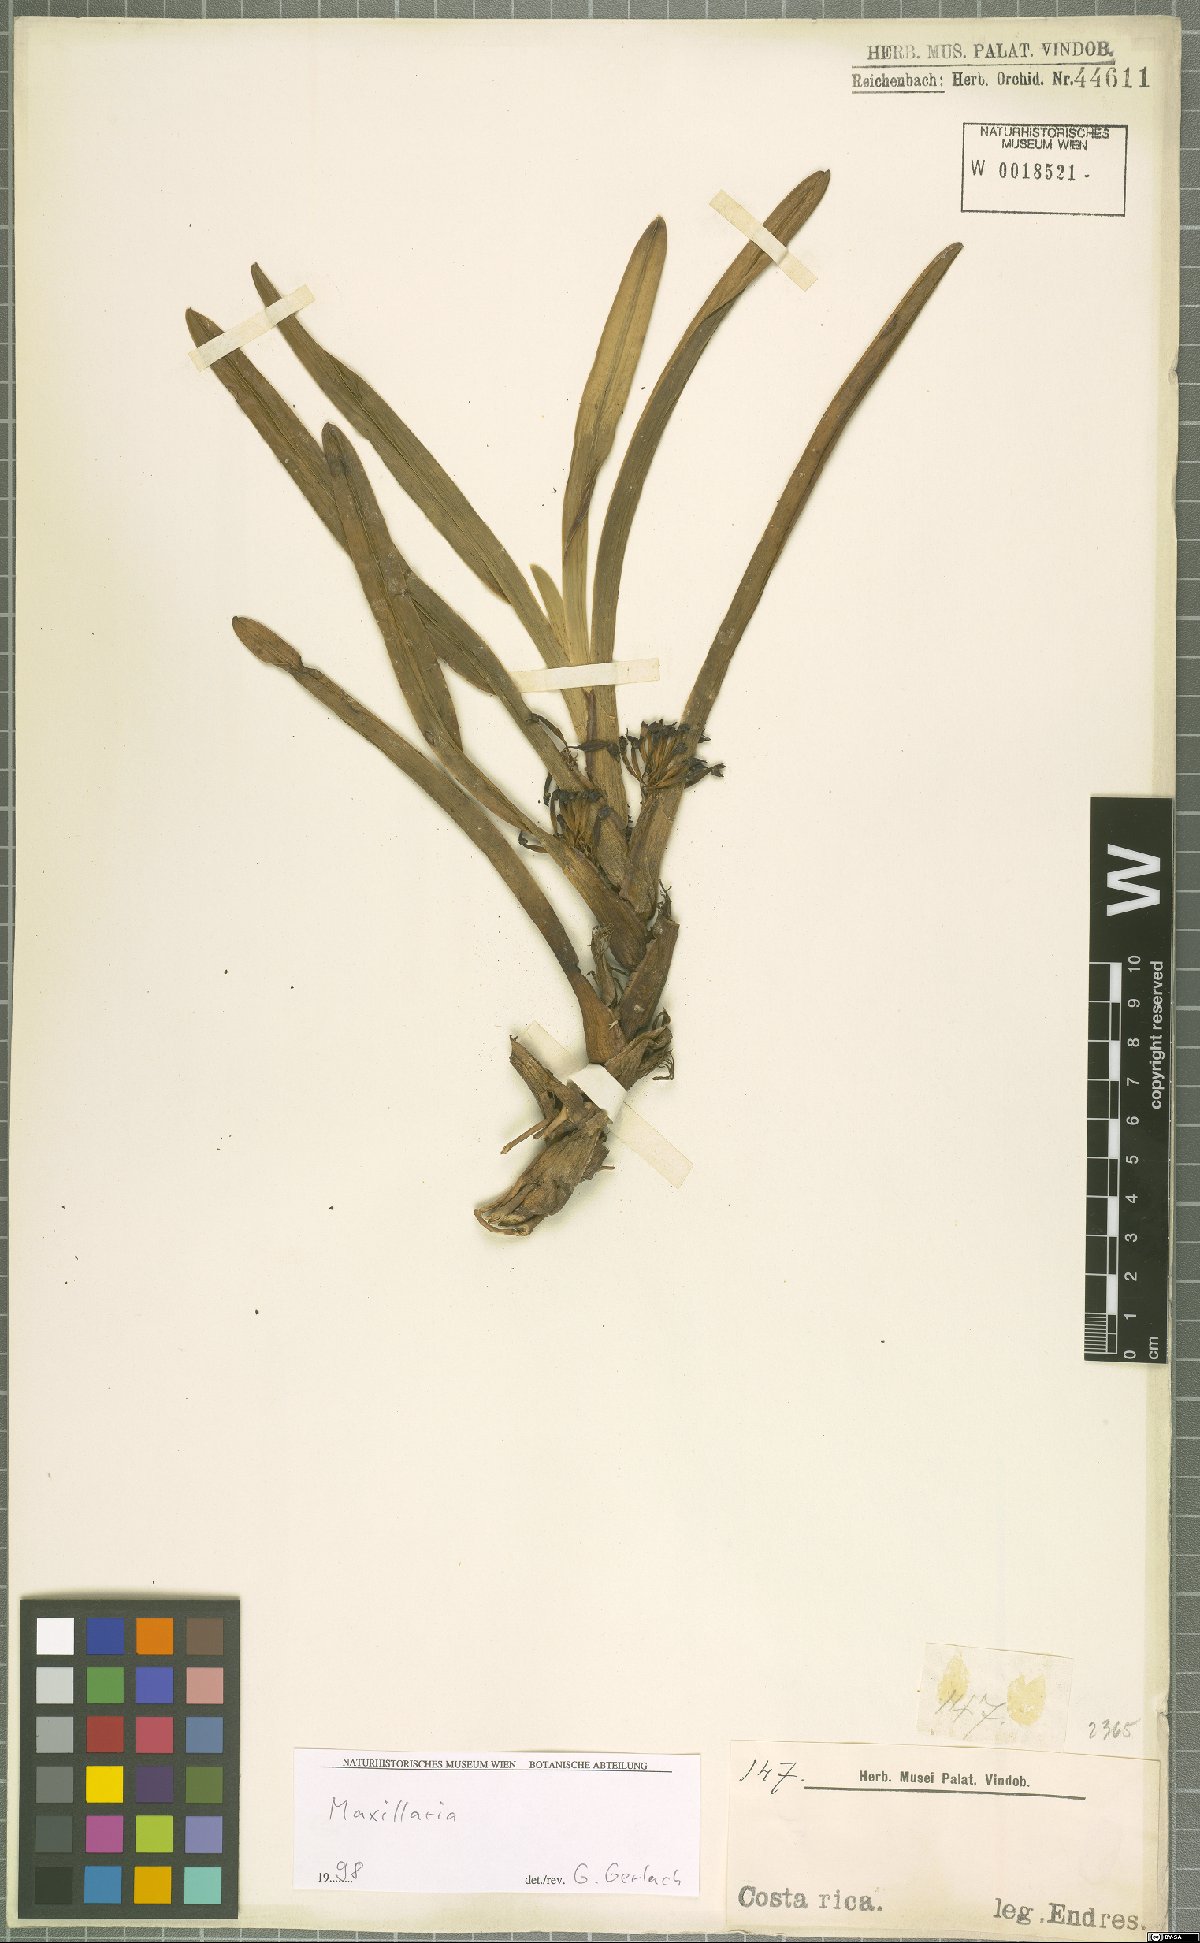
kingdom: Plantae
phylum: Tracheophyta
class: Liliopsida
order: Asparagales
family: Orchidaceae
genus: Maxillaria
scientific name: Maxillaria
